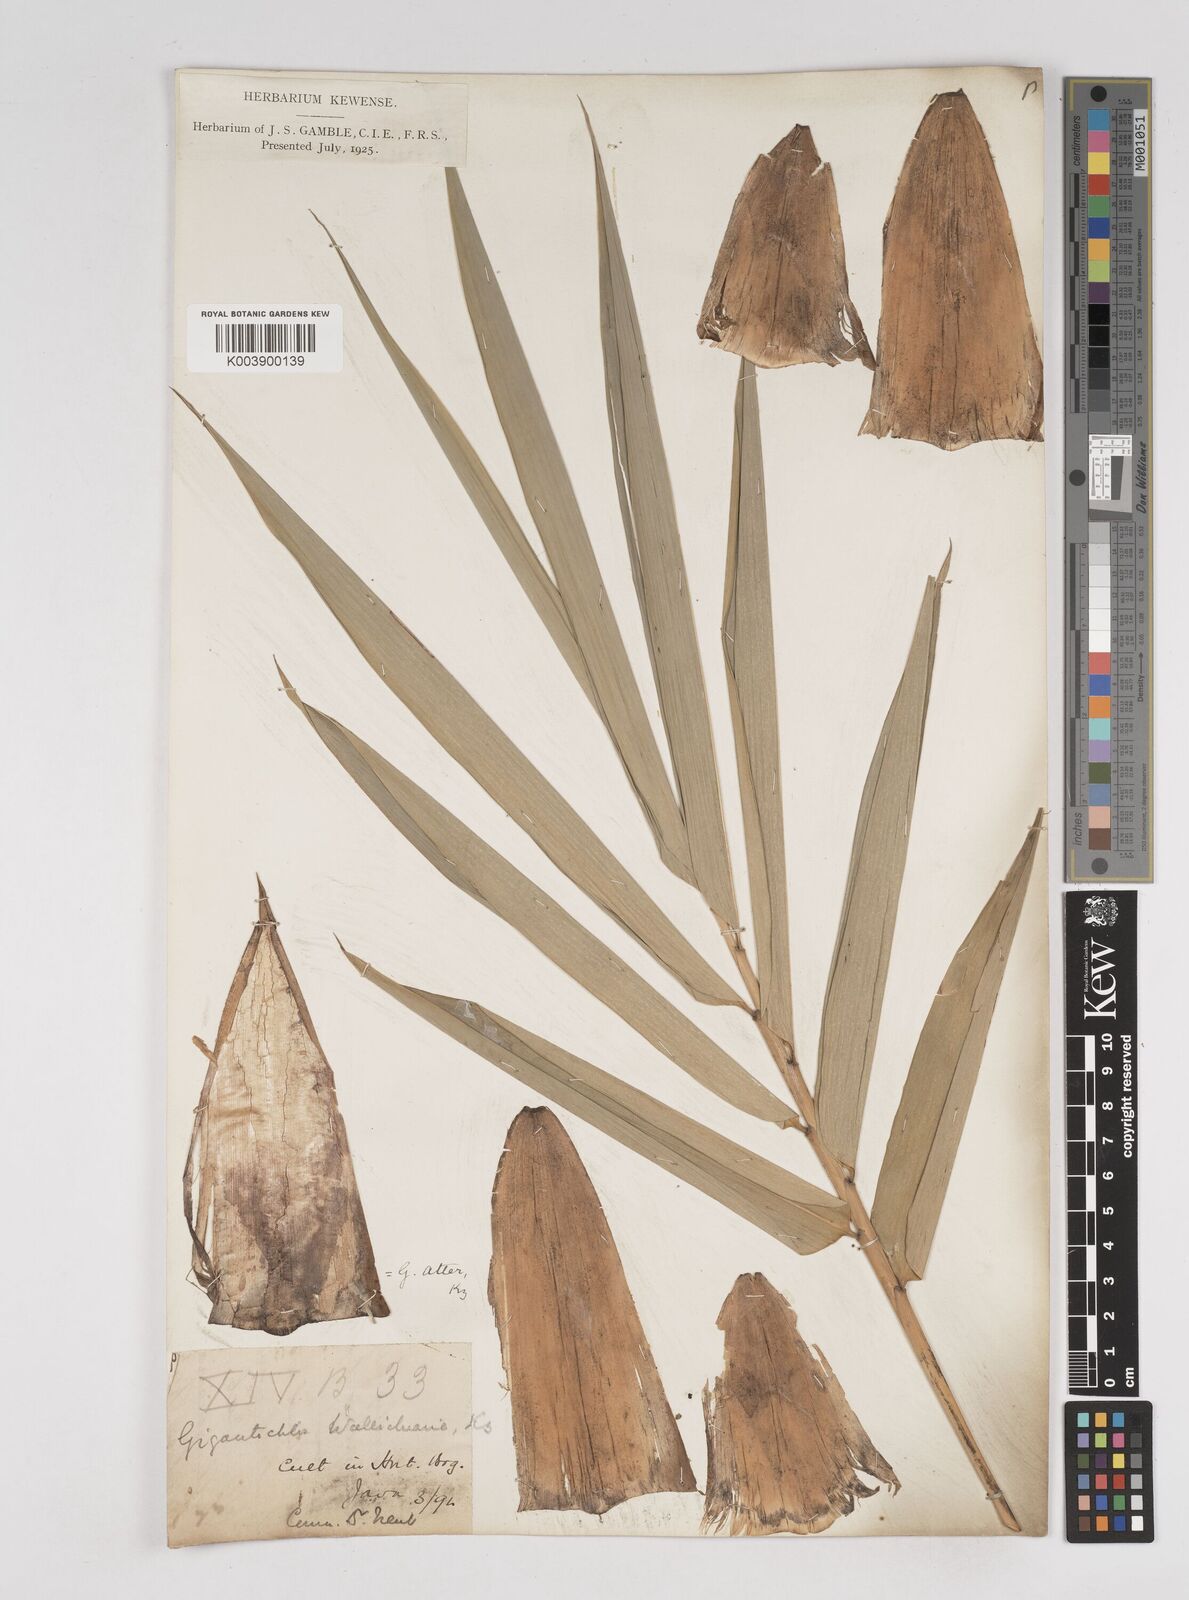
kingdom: Plantae
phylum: Tracheophyta
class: Liliopsida
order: Poales
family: Poaceae
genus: Gigantochloa
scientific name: Gigantochloa atter
